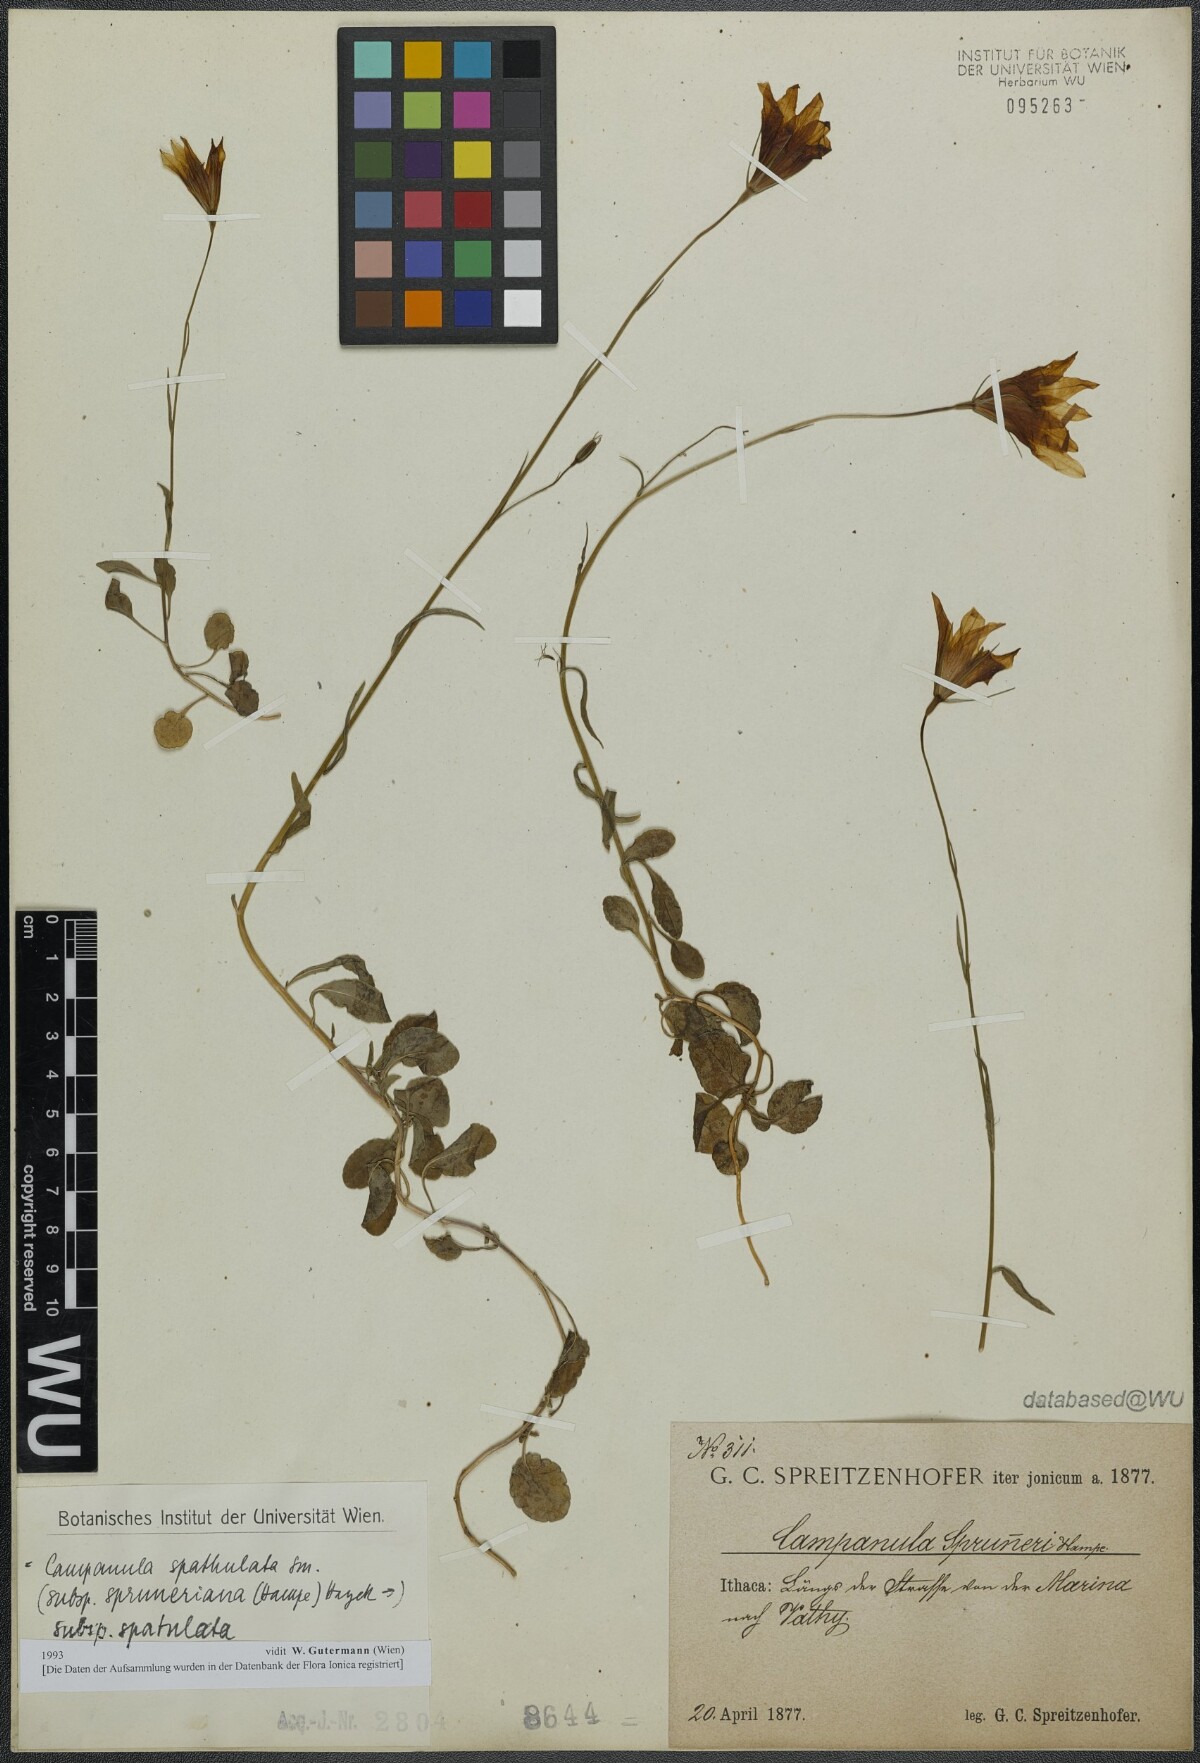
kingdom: Plantae
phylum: Tracheophyta
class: Magnoliopsida
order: Asterales
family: Campanulaceae
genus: Campanula
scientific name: Campanula spatulata
